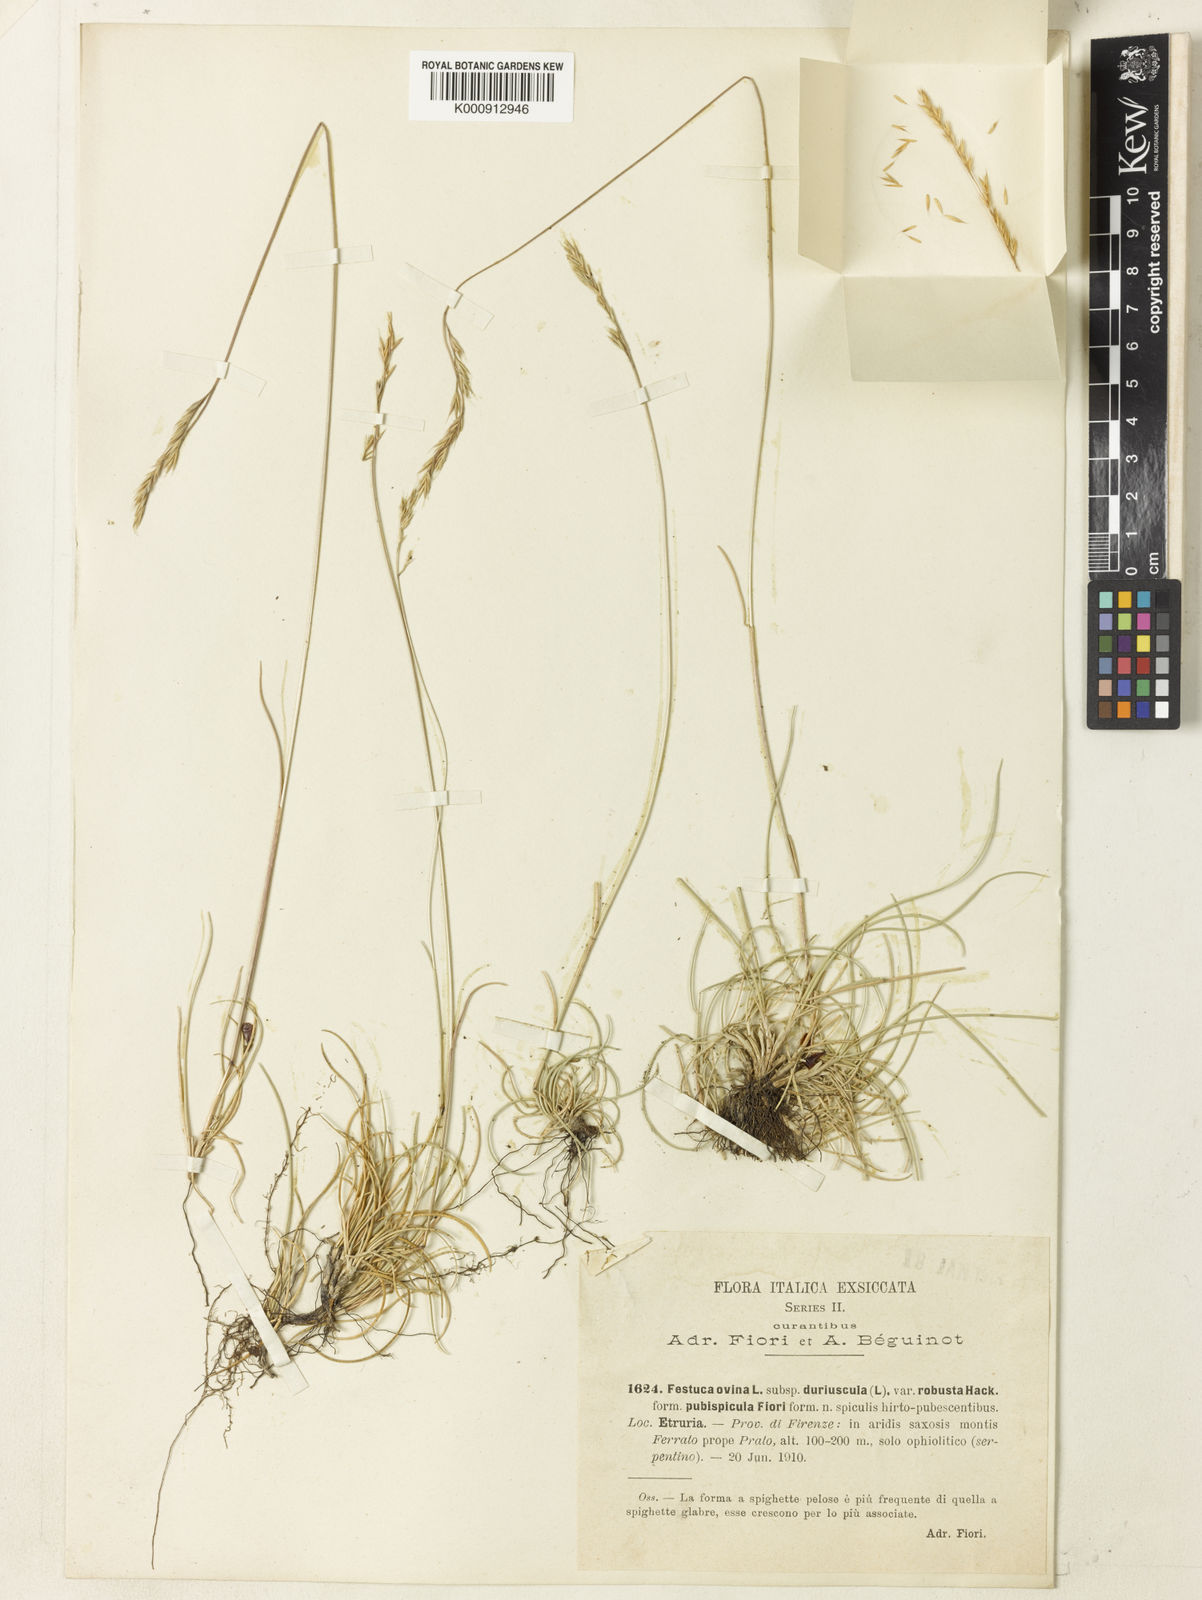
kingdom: Plantae
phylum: Tracheophyta
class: Liliopsida
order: Poales
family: Poaceae
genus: Festuca
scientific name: Festuca
